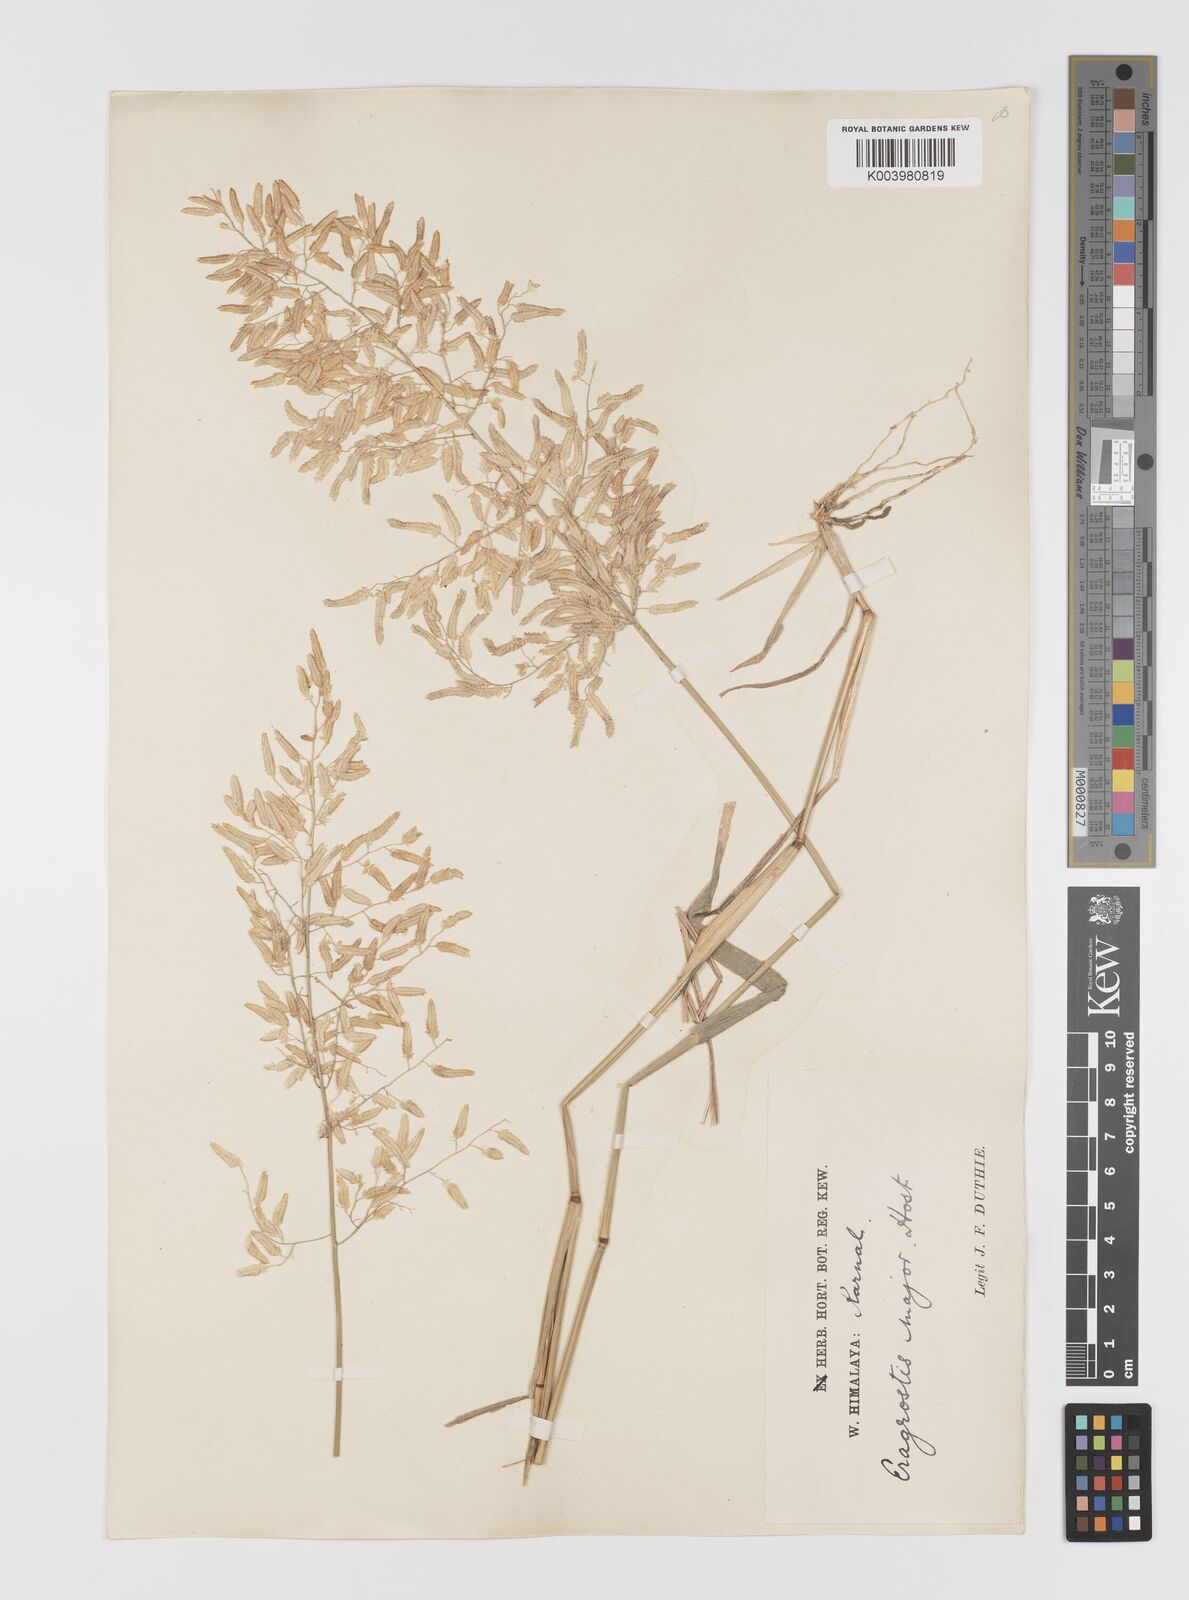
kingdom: Plantae
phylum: Tracheophyta
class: Liliopsida
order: Poales
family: Poaceae
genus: Eragrostis
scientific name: Eragrostis cilianensis
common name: Stinkgrass
